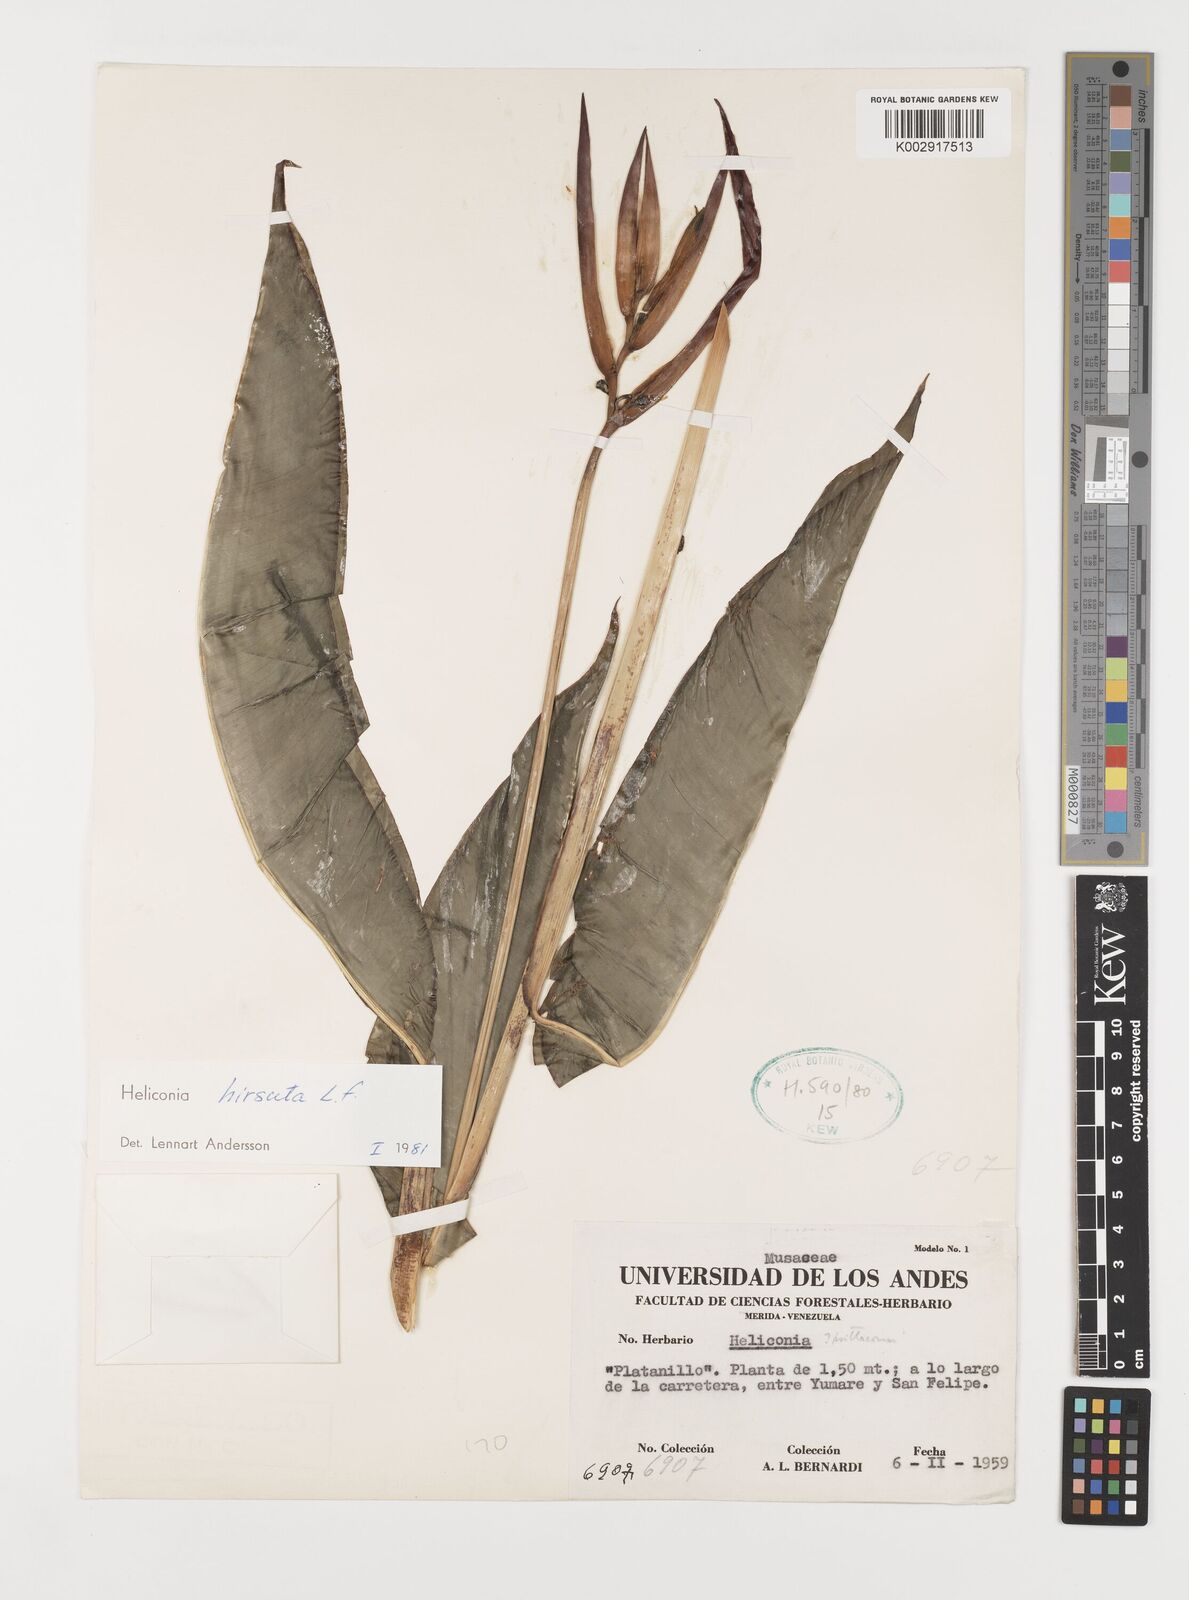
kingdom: Plantae
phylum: Tracheophyta
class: Liliopsida
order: Zingiberales
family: Heliconiaceae
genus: Heliconia
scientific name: Heliconia hirsuta
